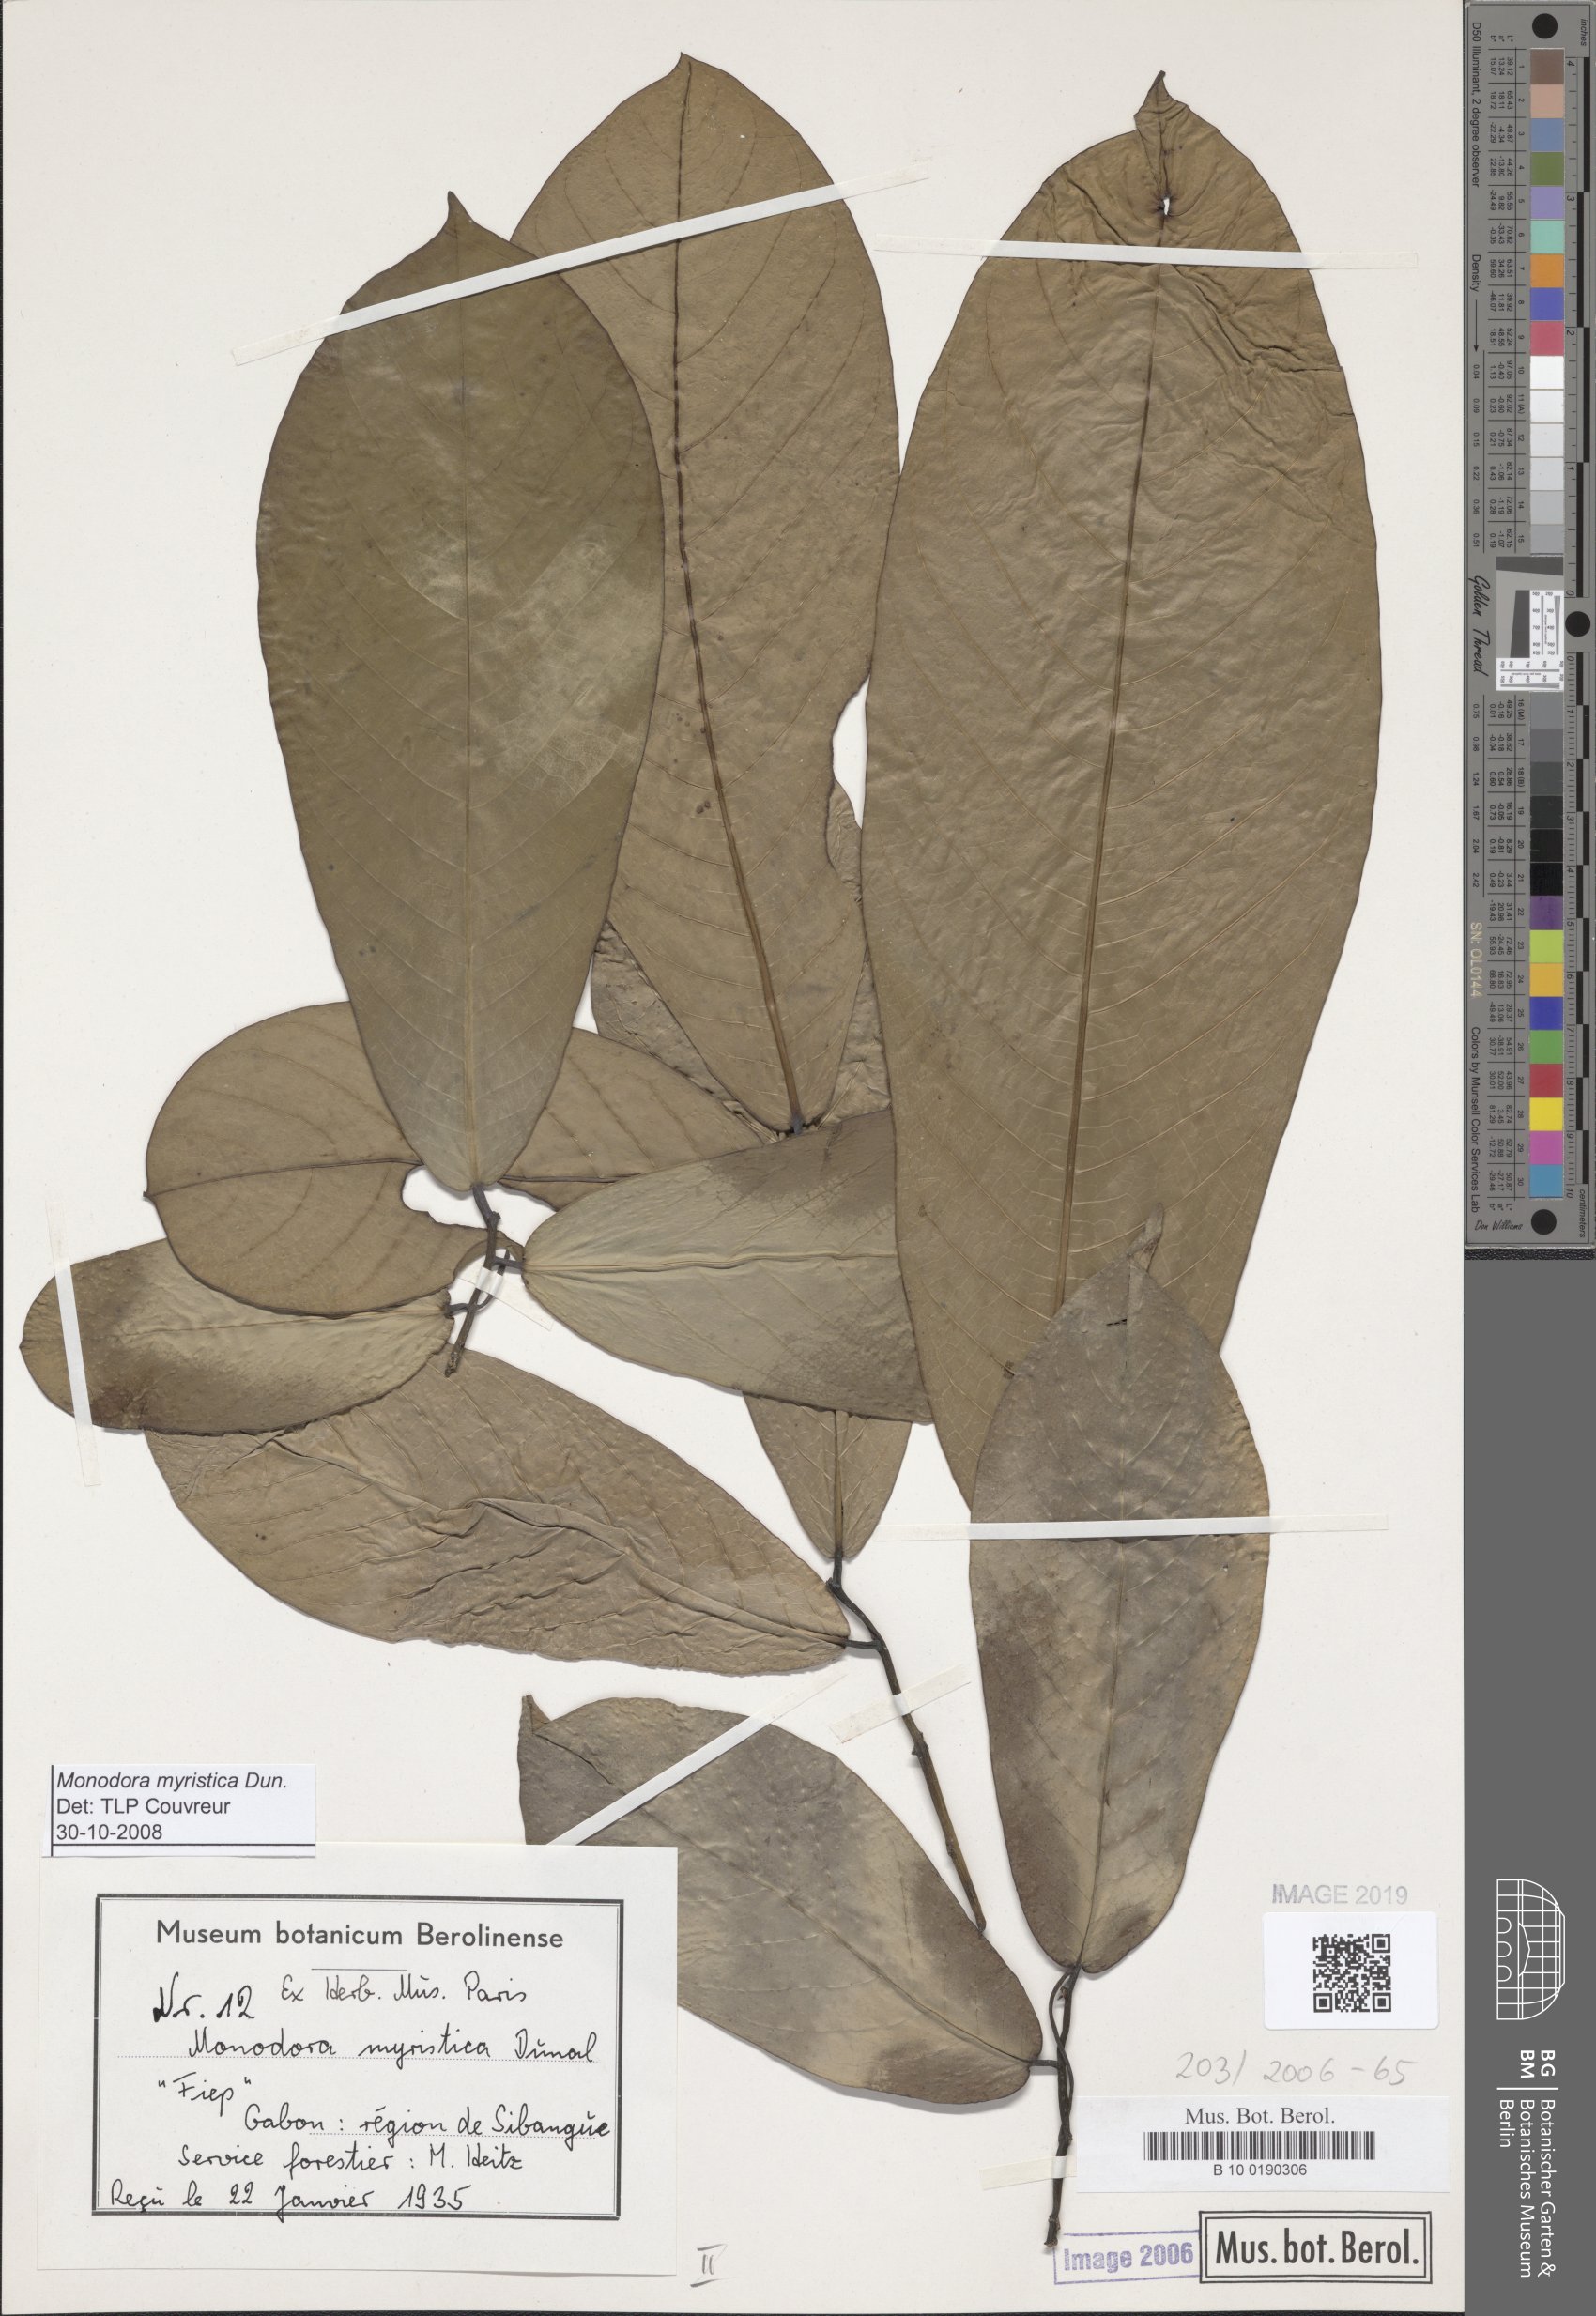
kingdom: Plantae
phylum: Tracheophyta
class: Magnoliopsida
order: Magnoliales
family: Annonaceae
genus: Monodora
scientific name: Monodora myristica
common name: African nutmeg
